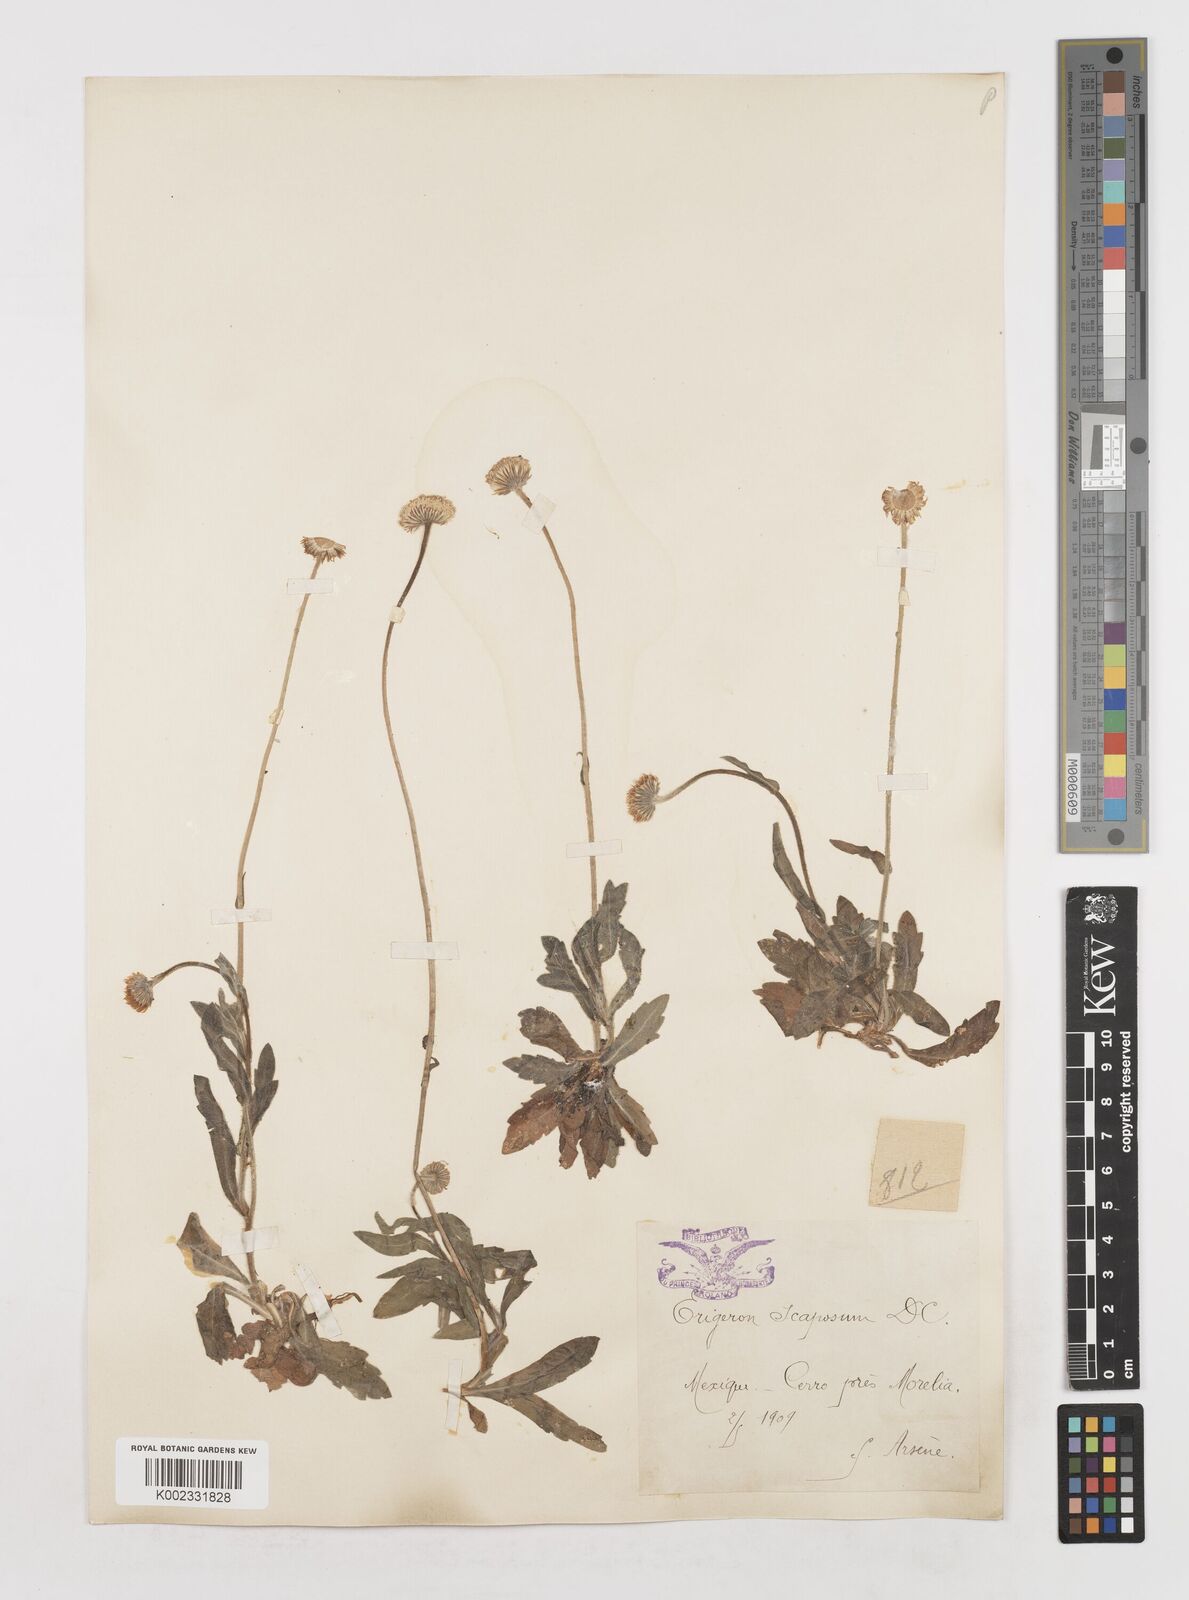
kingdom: Plantae
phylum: Tracheophyta
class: Magnoliopsida
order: Asterales
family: Asteraceae
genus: Erigeron
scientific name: Erigeron longipes
